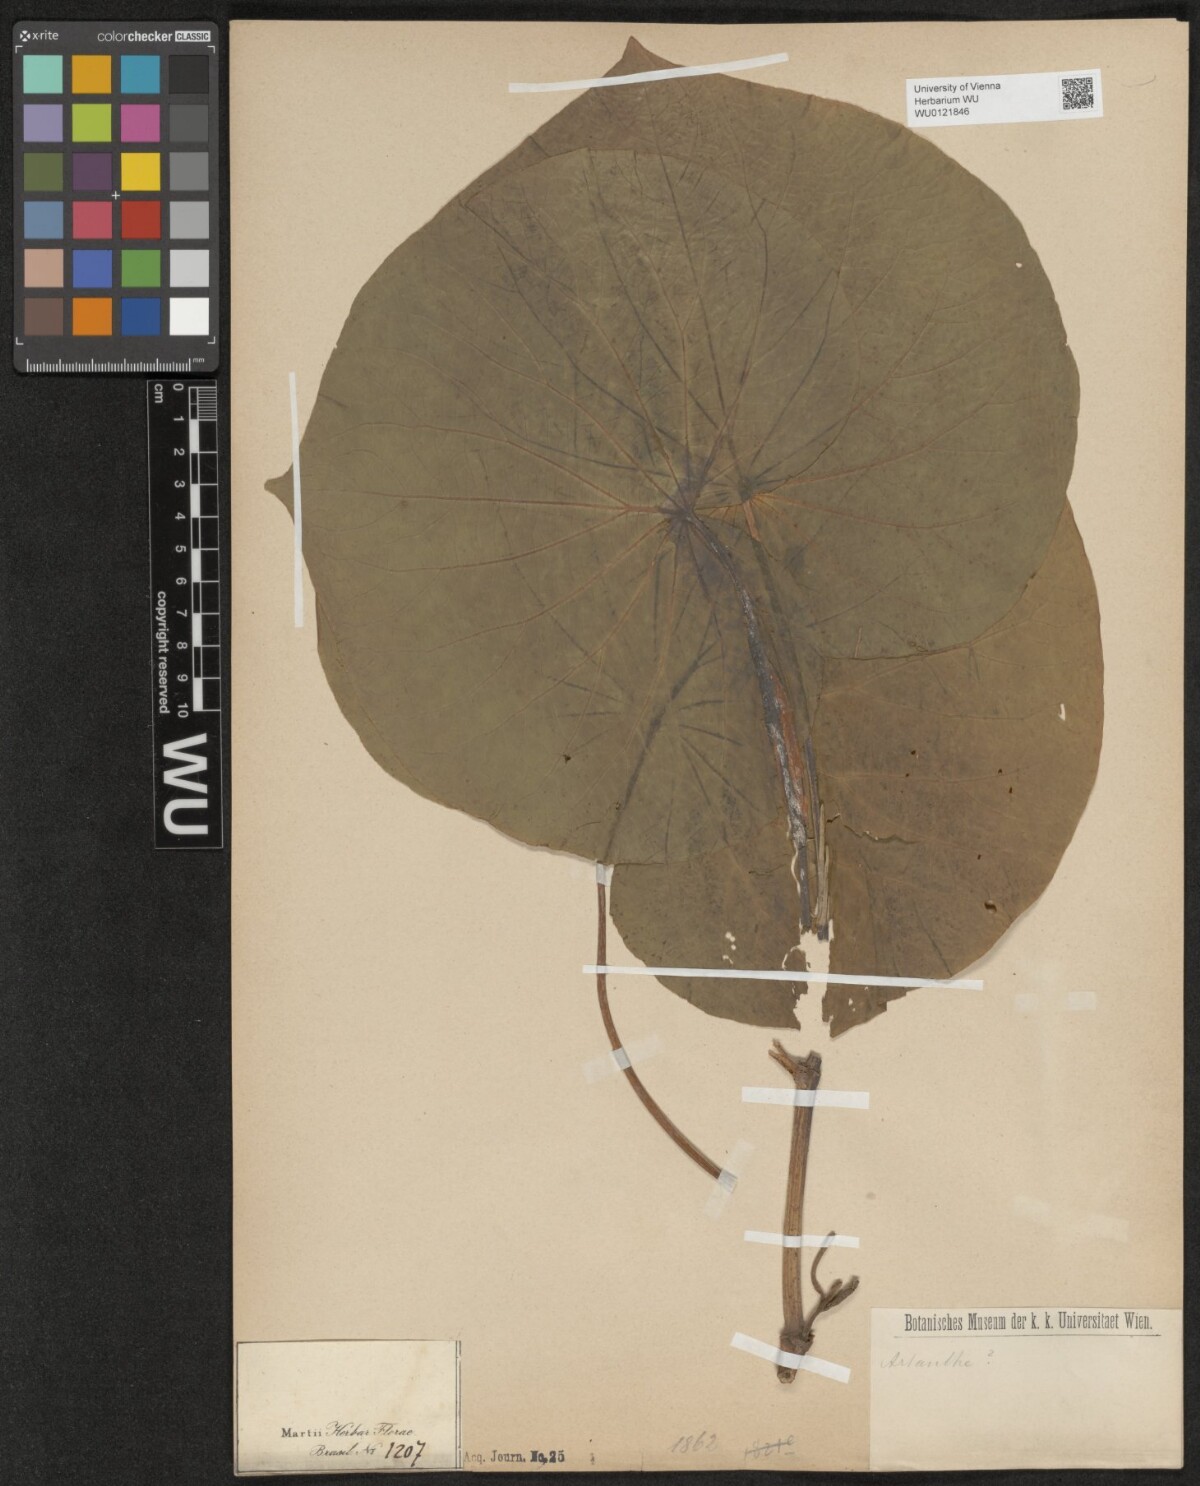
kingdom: Plantae
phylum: Tracheophyta
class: Magnoliopsida
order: Piperales
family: Piperaceae
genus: Piper
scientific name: Piper peltatum
